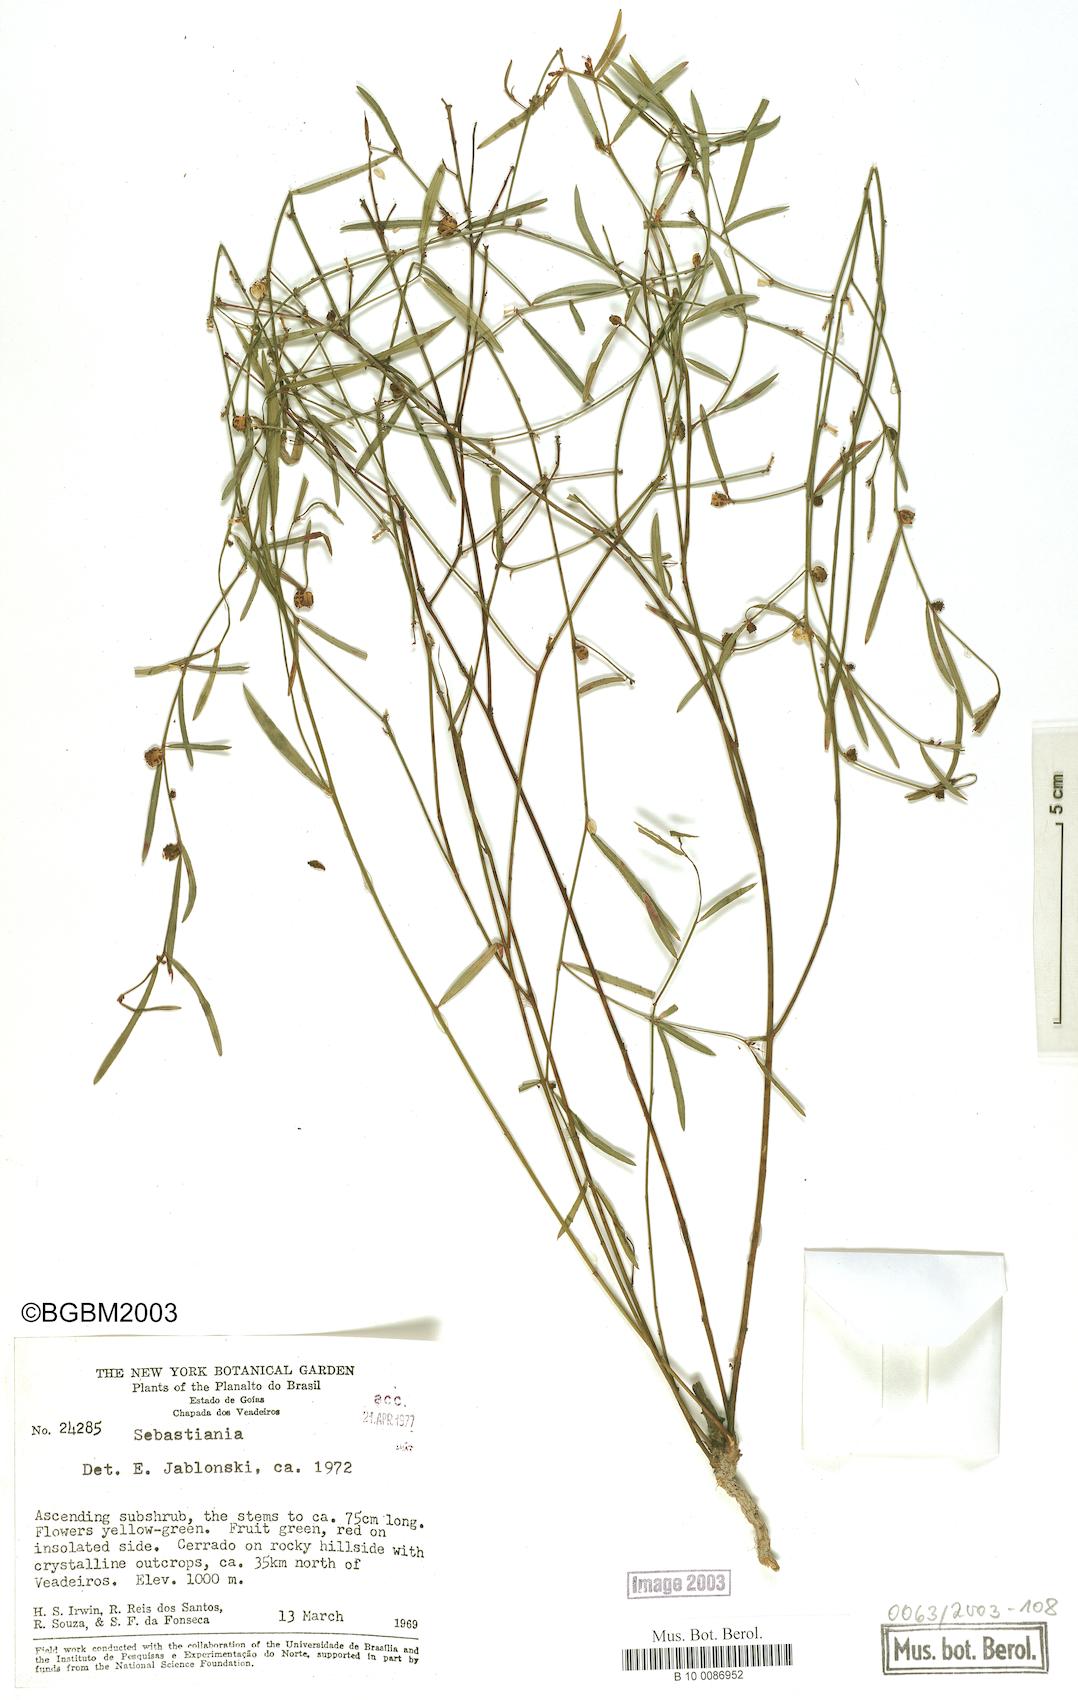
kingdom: Plantae
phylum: Tracheophyta
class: Magnoliopsida
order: Malpighiales
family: Euphorbiaceae
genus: Microstachys
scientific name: Microstachys bidentata
